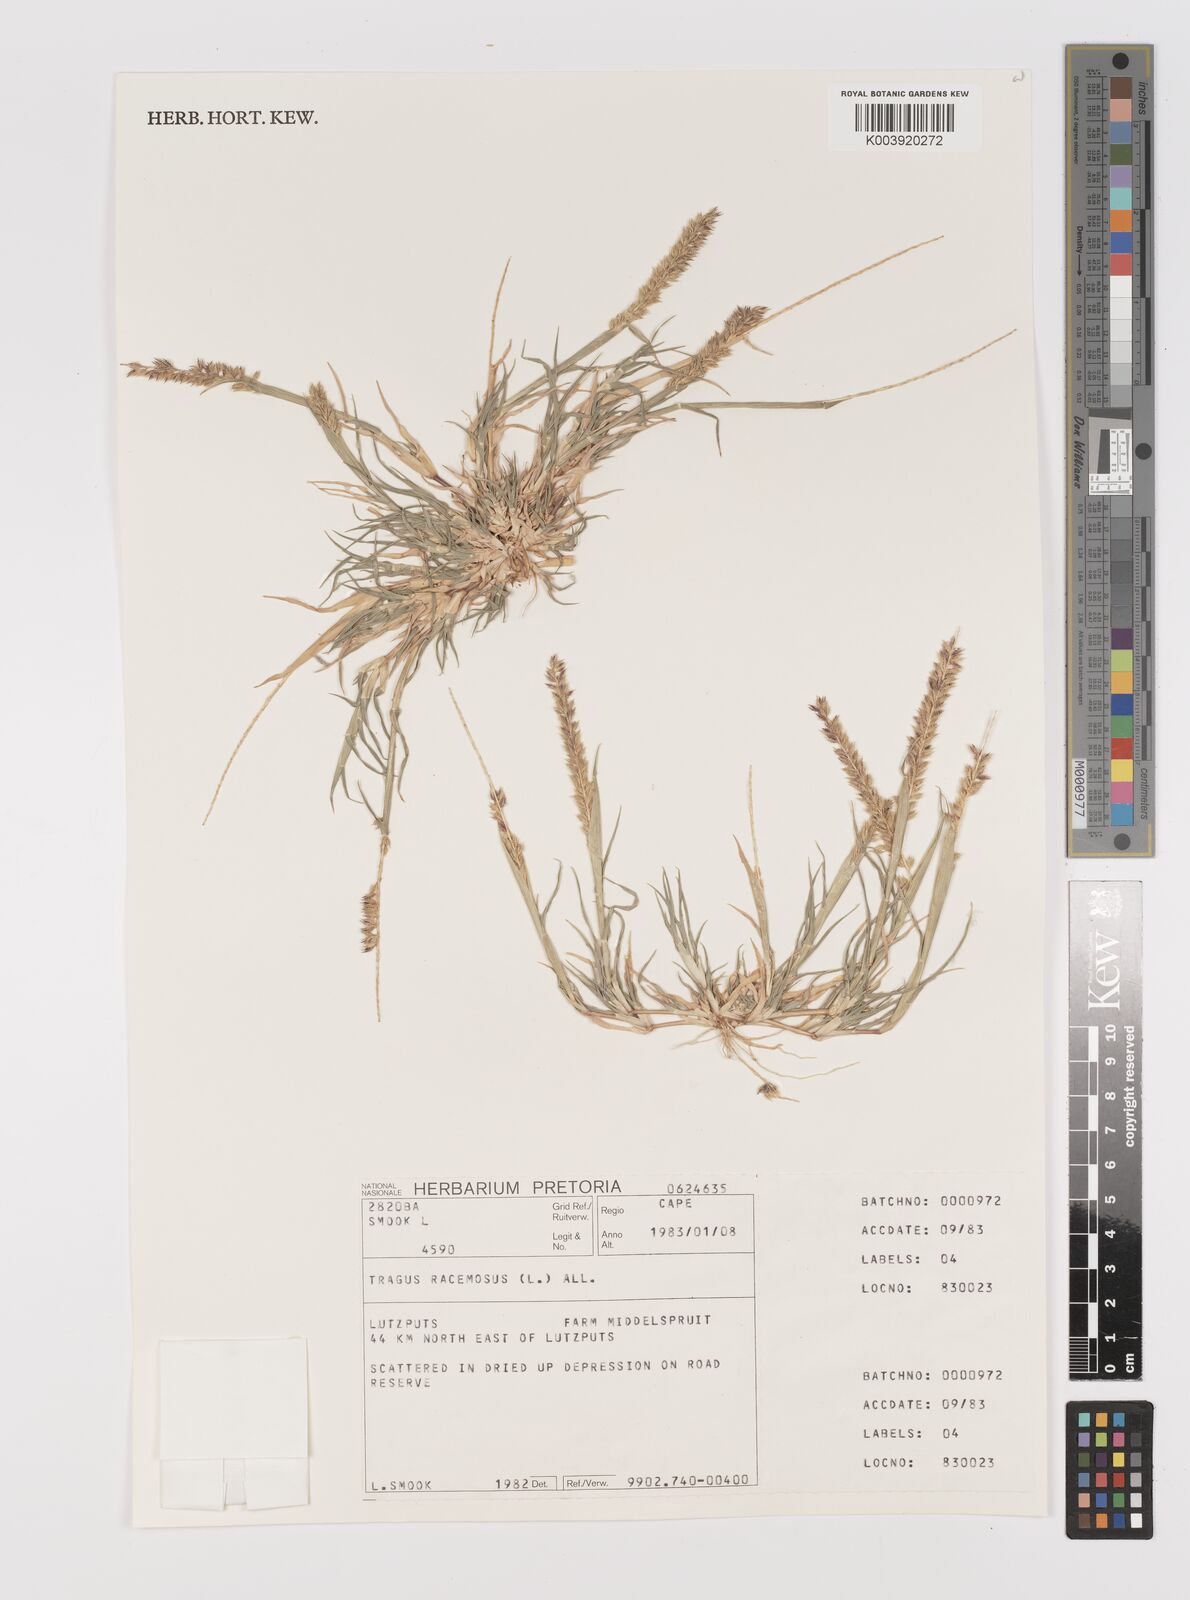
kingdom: Plantae
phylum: Tracheophyta
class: Liliopsida
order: Poales
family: Poaceae
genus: Tragus
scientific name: Tragus racemosus
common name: European bur-grass
